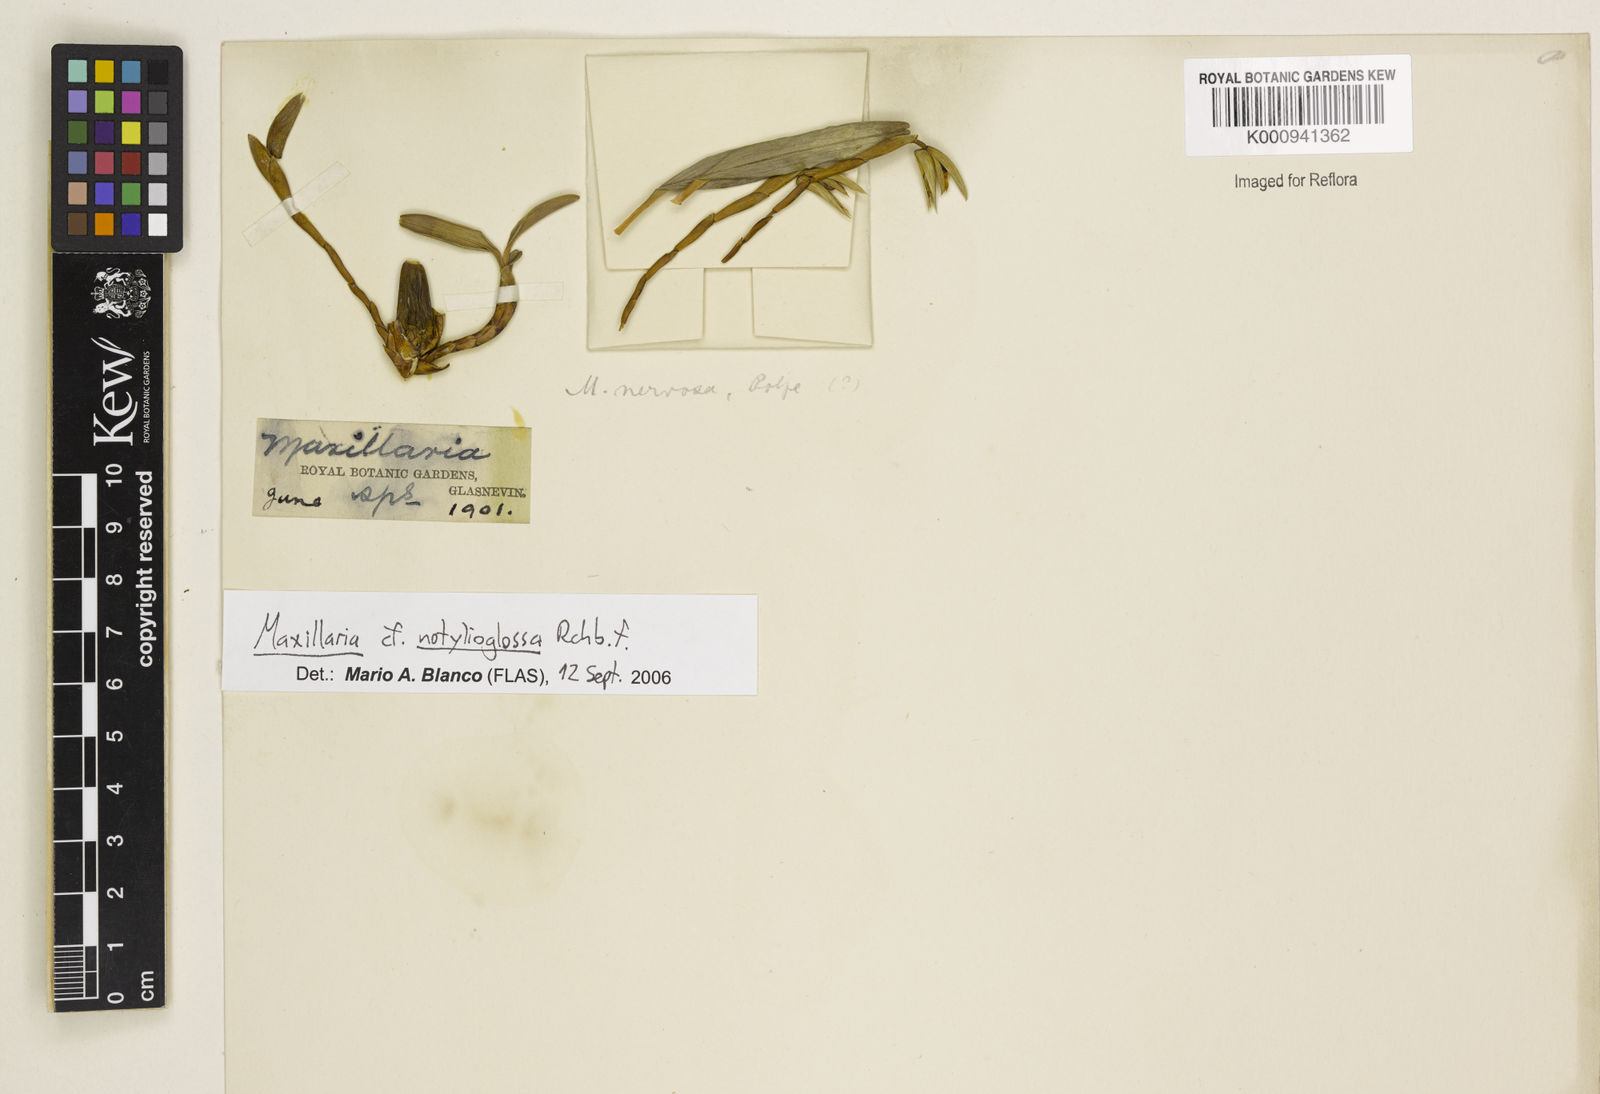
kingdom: Plantae
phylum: Tracheophyta
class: Liliopsida
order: Asparagales
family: Orchidaceae
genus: Maxillaria
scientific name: Maxillaria notylioglossa
